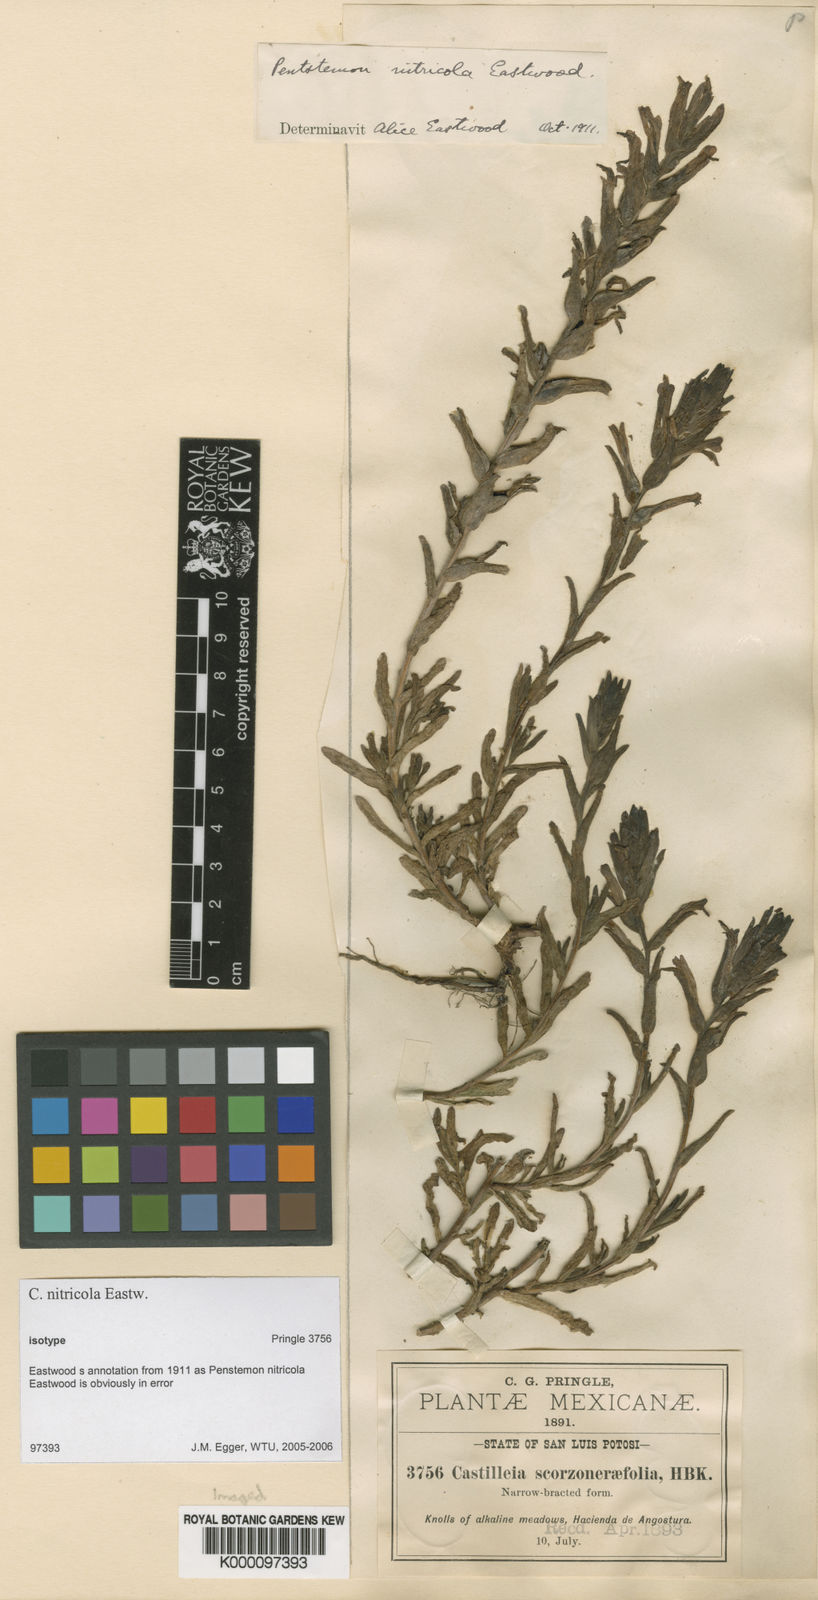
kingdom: Plantae
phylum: Tracheophyta
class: Magnoliopsida
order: Lamiales
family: Orobanchaceae
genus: Castilleja
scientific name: Castilleja nitricola
